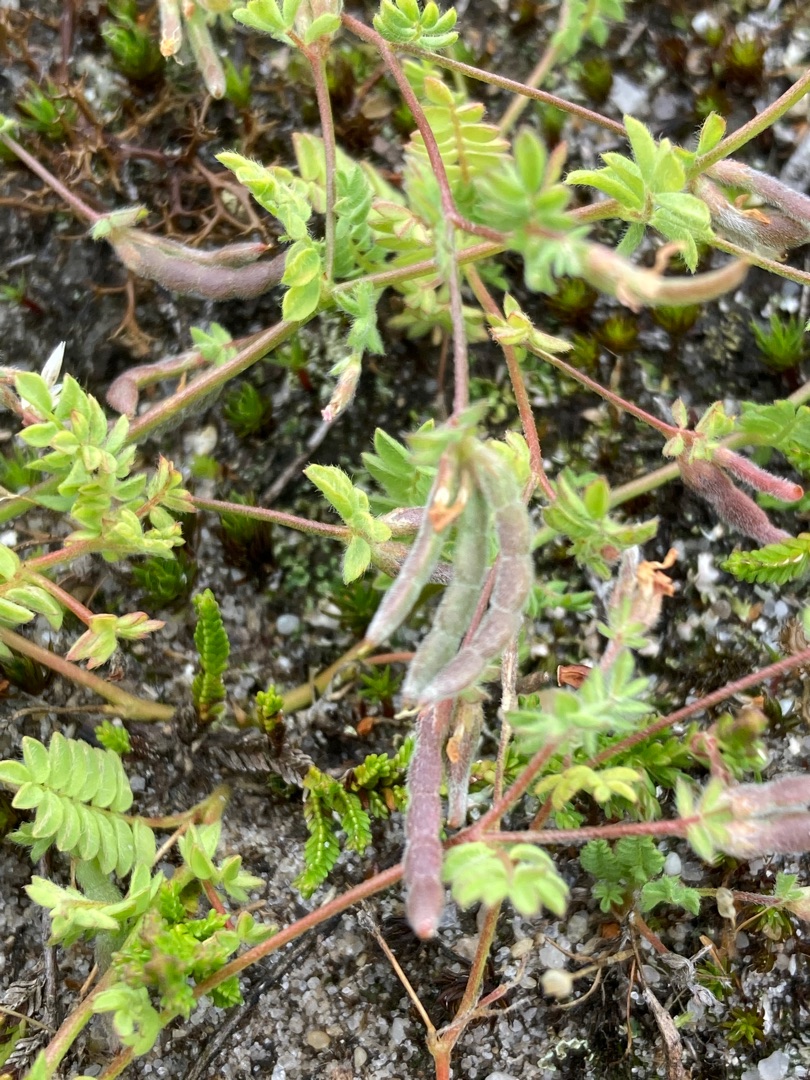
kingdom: Plantae
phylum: Tracheophyta
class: Magnoliopsida
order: Fabales
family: Fabaceae
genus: Ornithopus
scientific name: Ornithopus perpusillus
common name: Liden fugleklo
